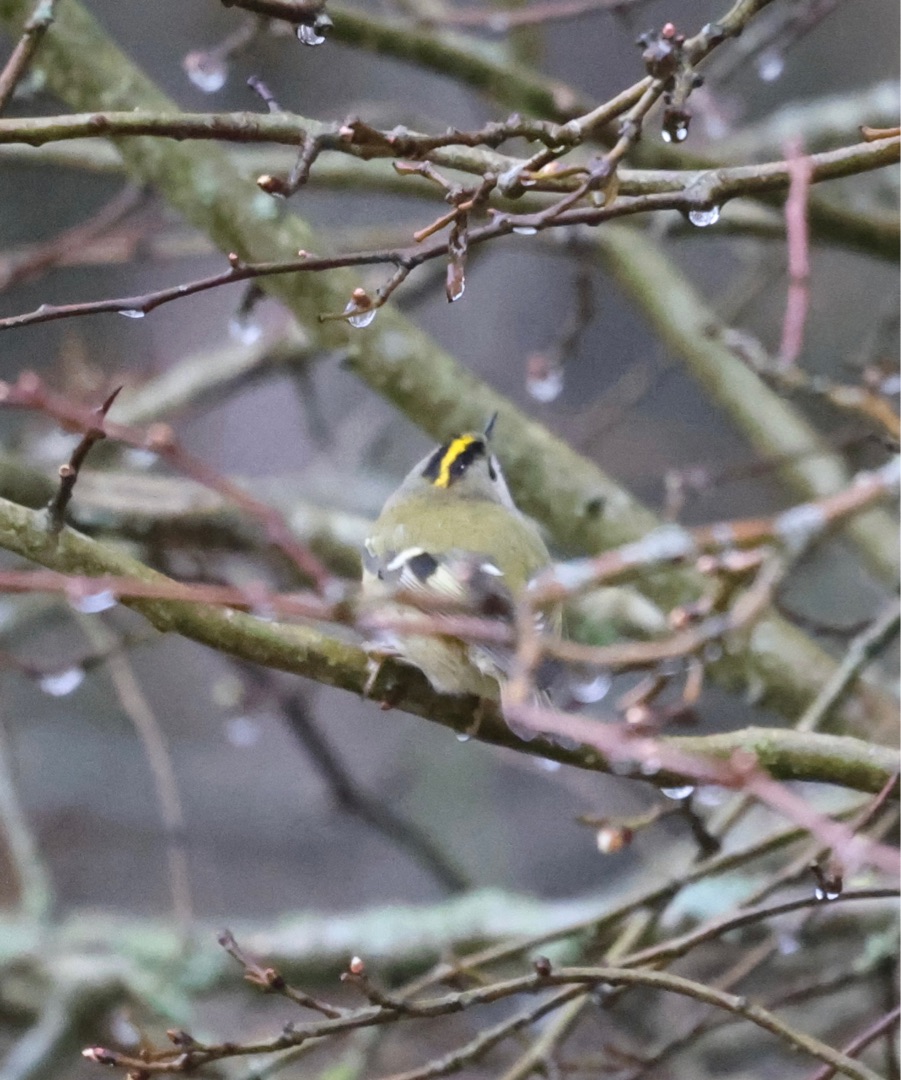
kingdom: Animalia
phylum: Chordata
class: Aves
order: Passeriformes
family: Regulidae
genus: Regulus
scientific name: Regulus regulus
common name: Fuglekonge
